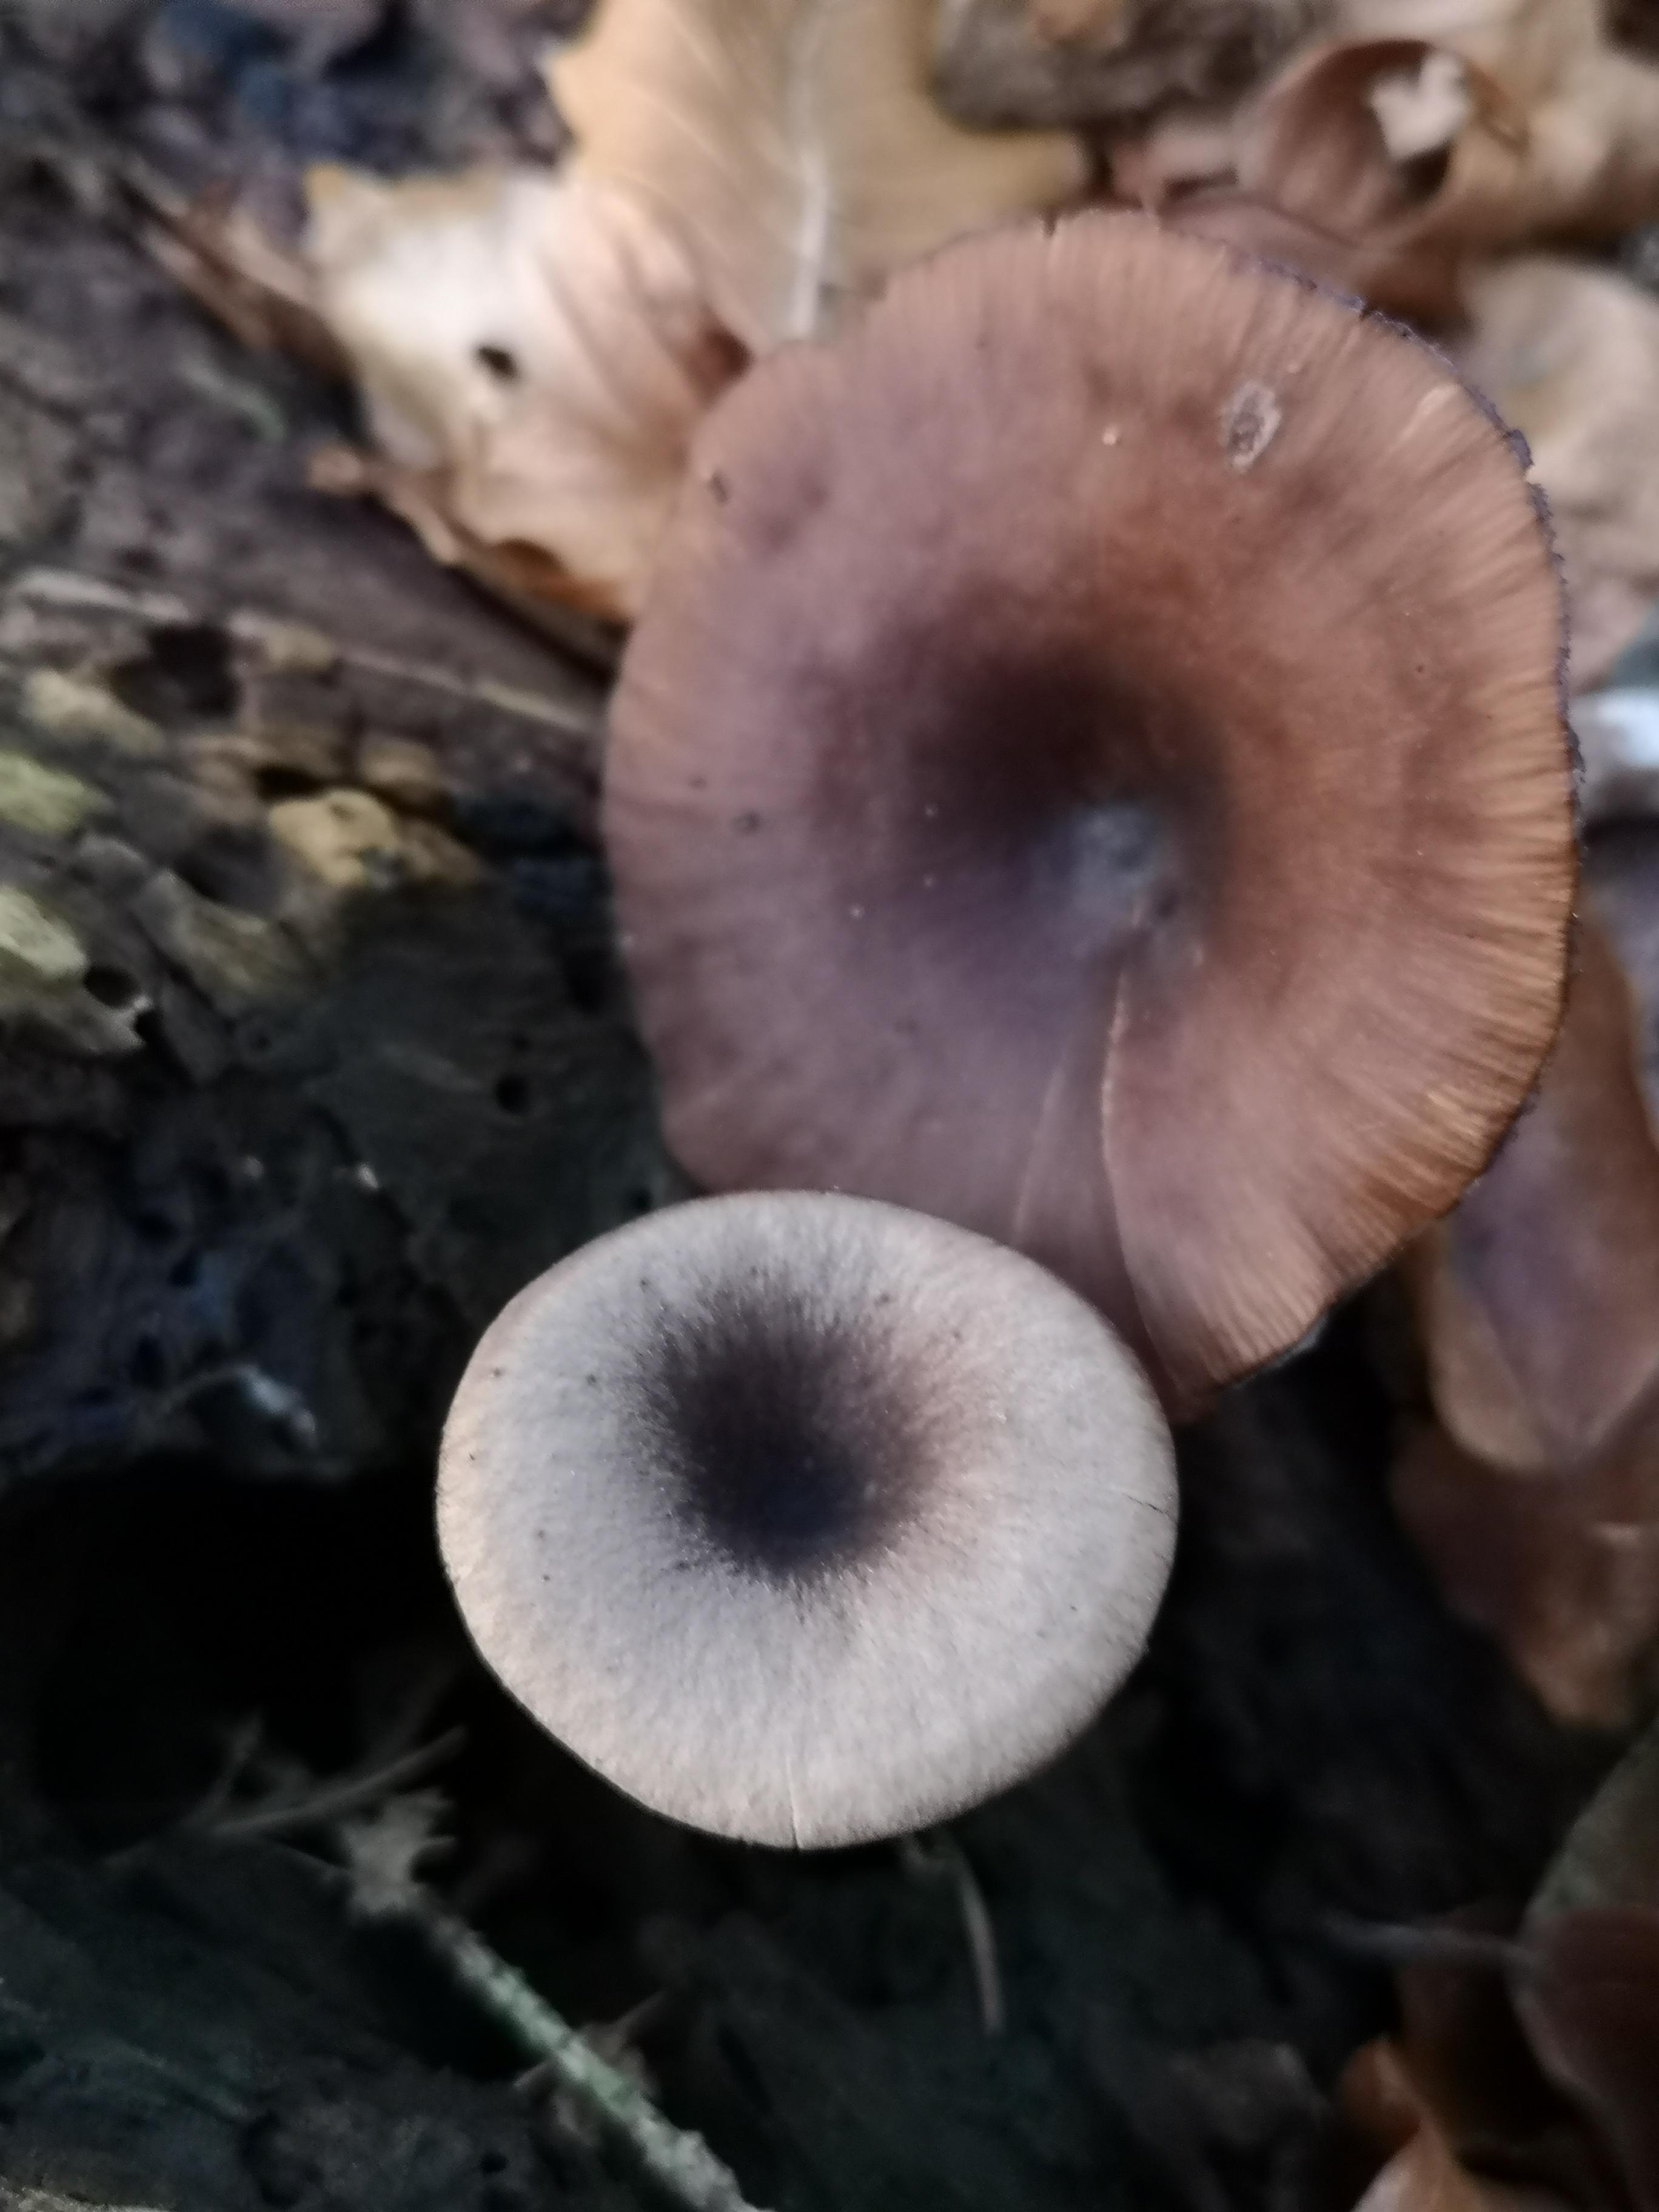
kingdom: Fungi
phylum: Basidiomycota
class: Agaricomycetes
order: Agaricales
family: Pseudoclitocybaceae
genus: Pseudoclitocybe
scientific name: Pseudoclitocybe cyathiformis
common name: almindelig bægertragthat
